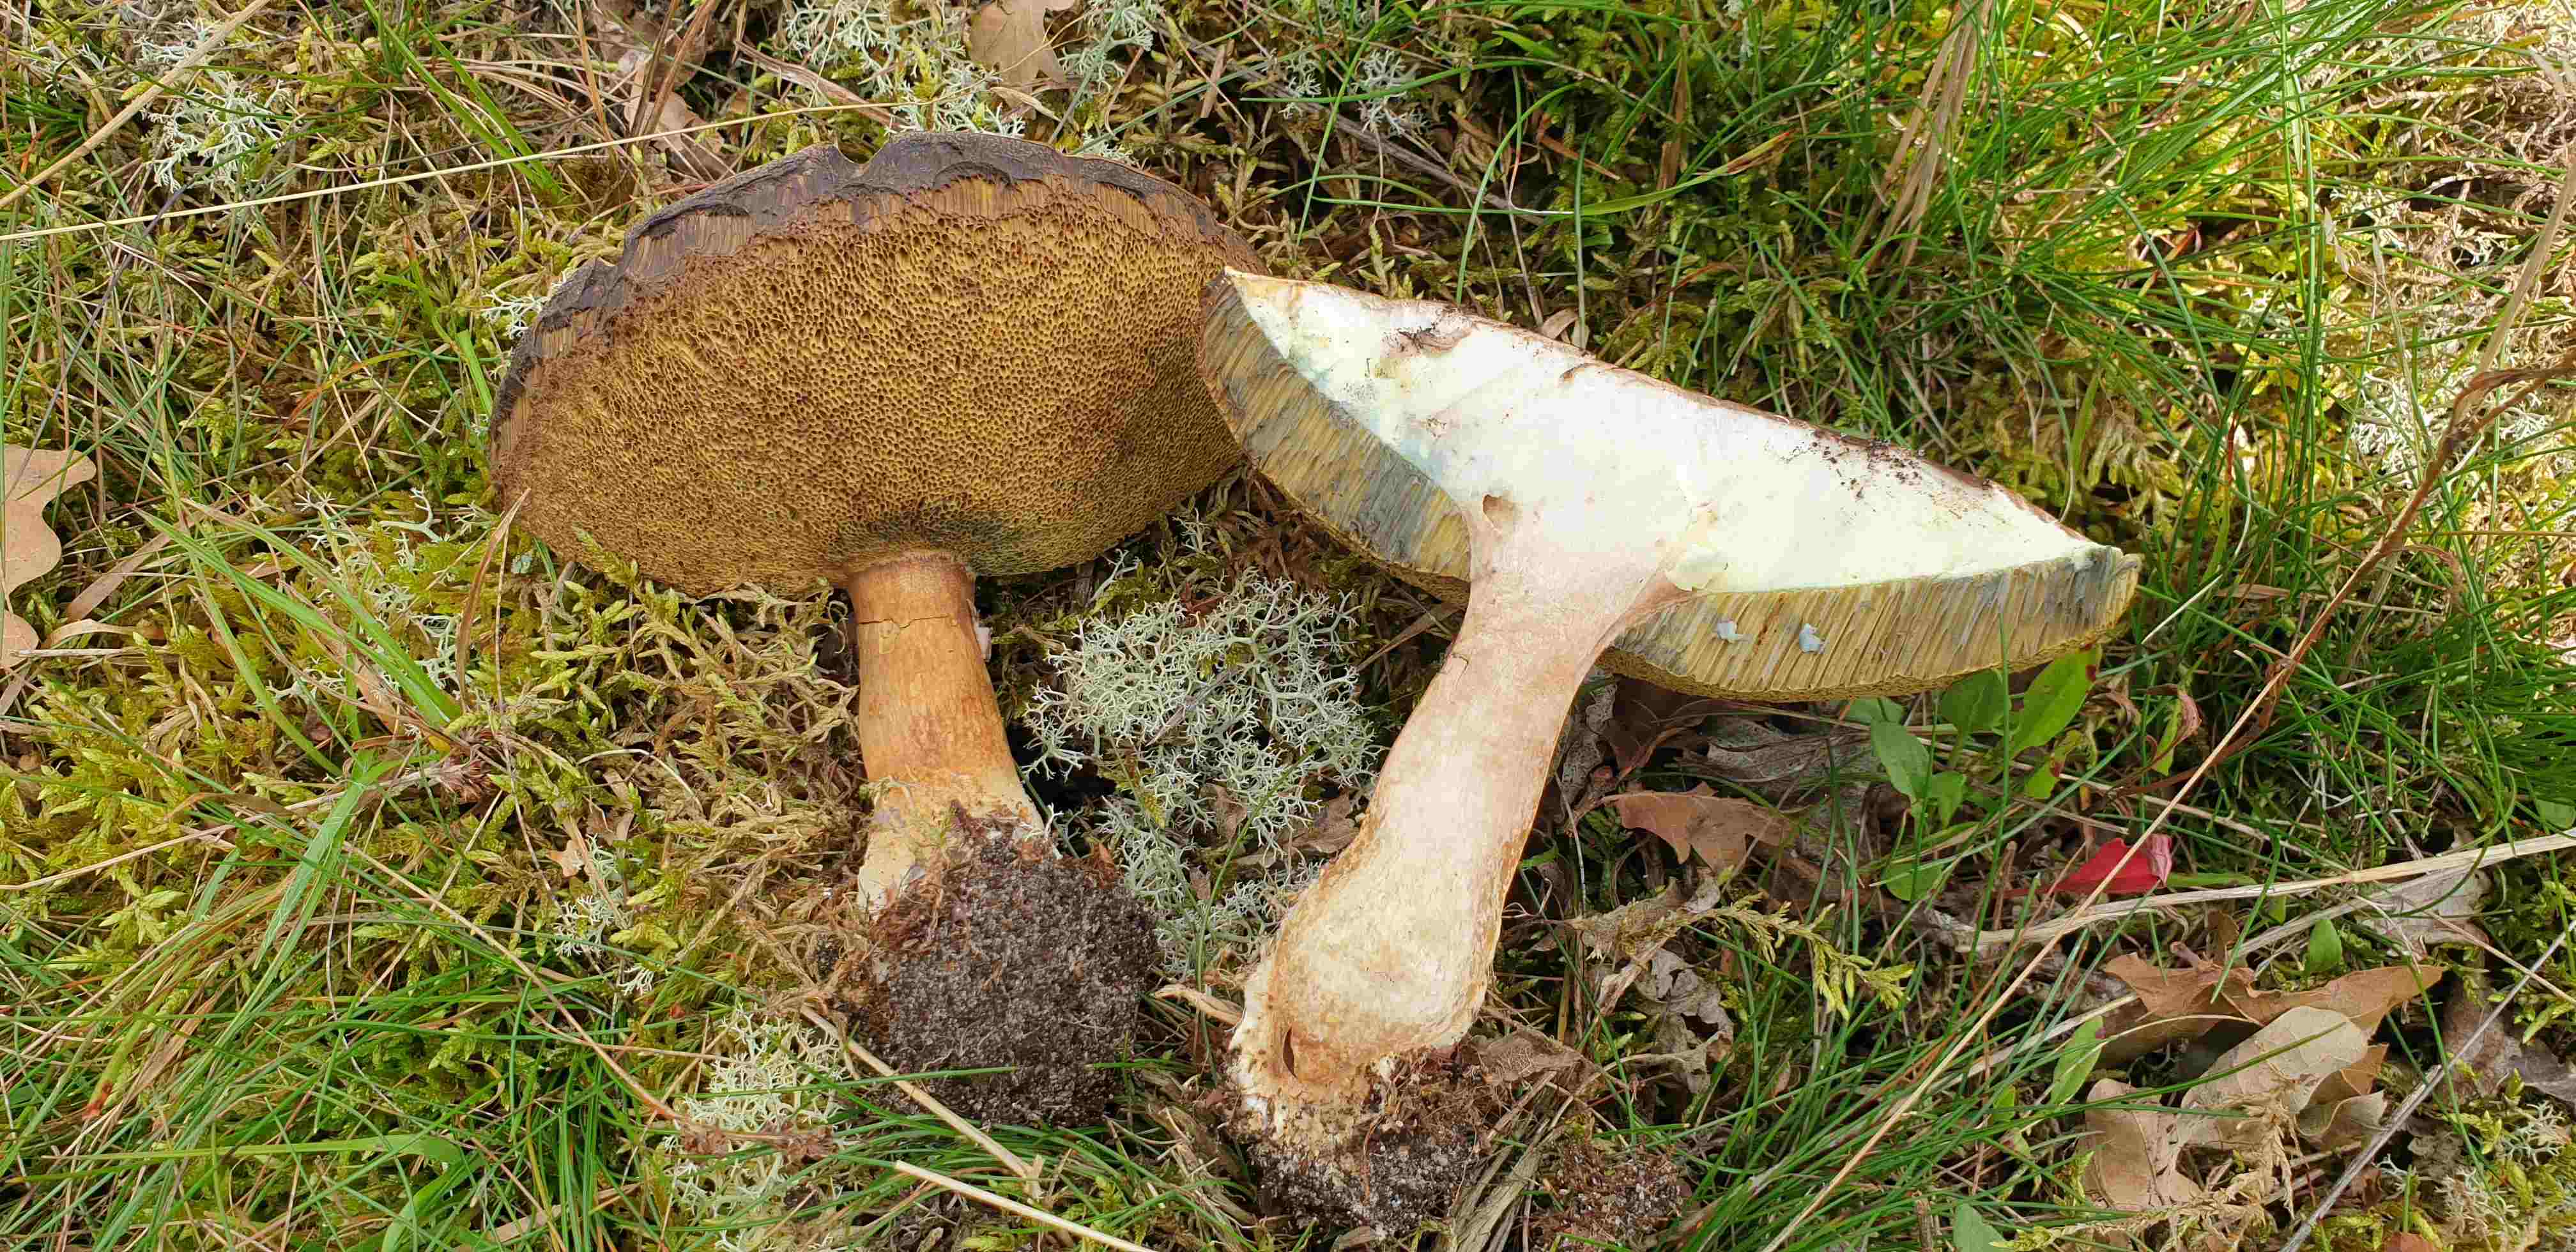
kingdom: Fungi
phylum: Basidiomycota
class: Agaricomycetes
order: Boletales
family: Boletaceae
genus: Imleria
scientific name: Imleria badia
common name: brunstokket rørhat
